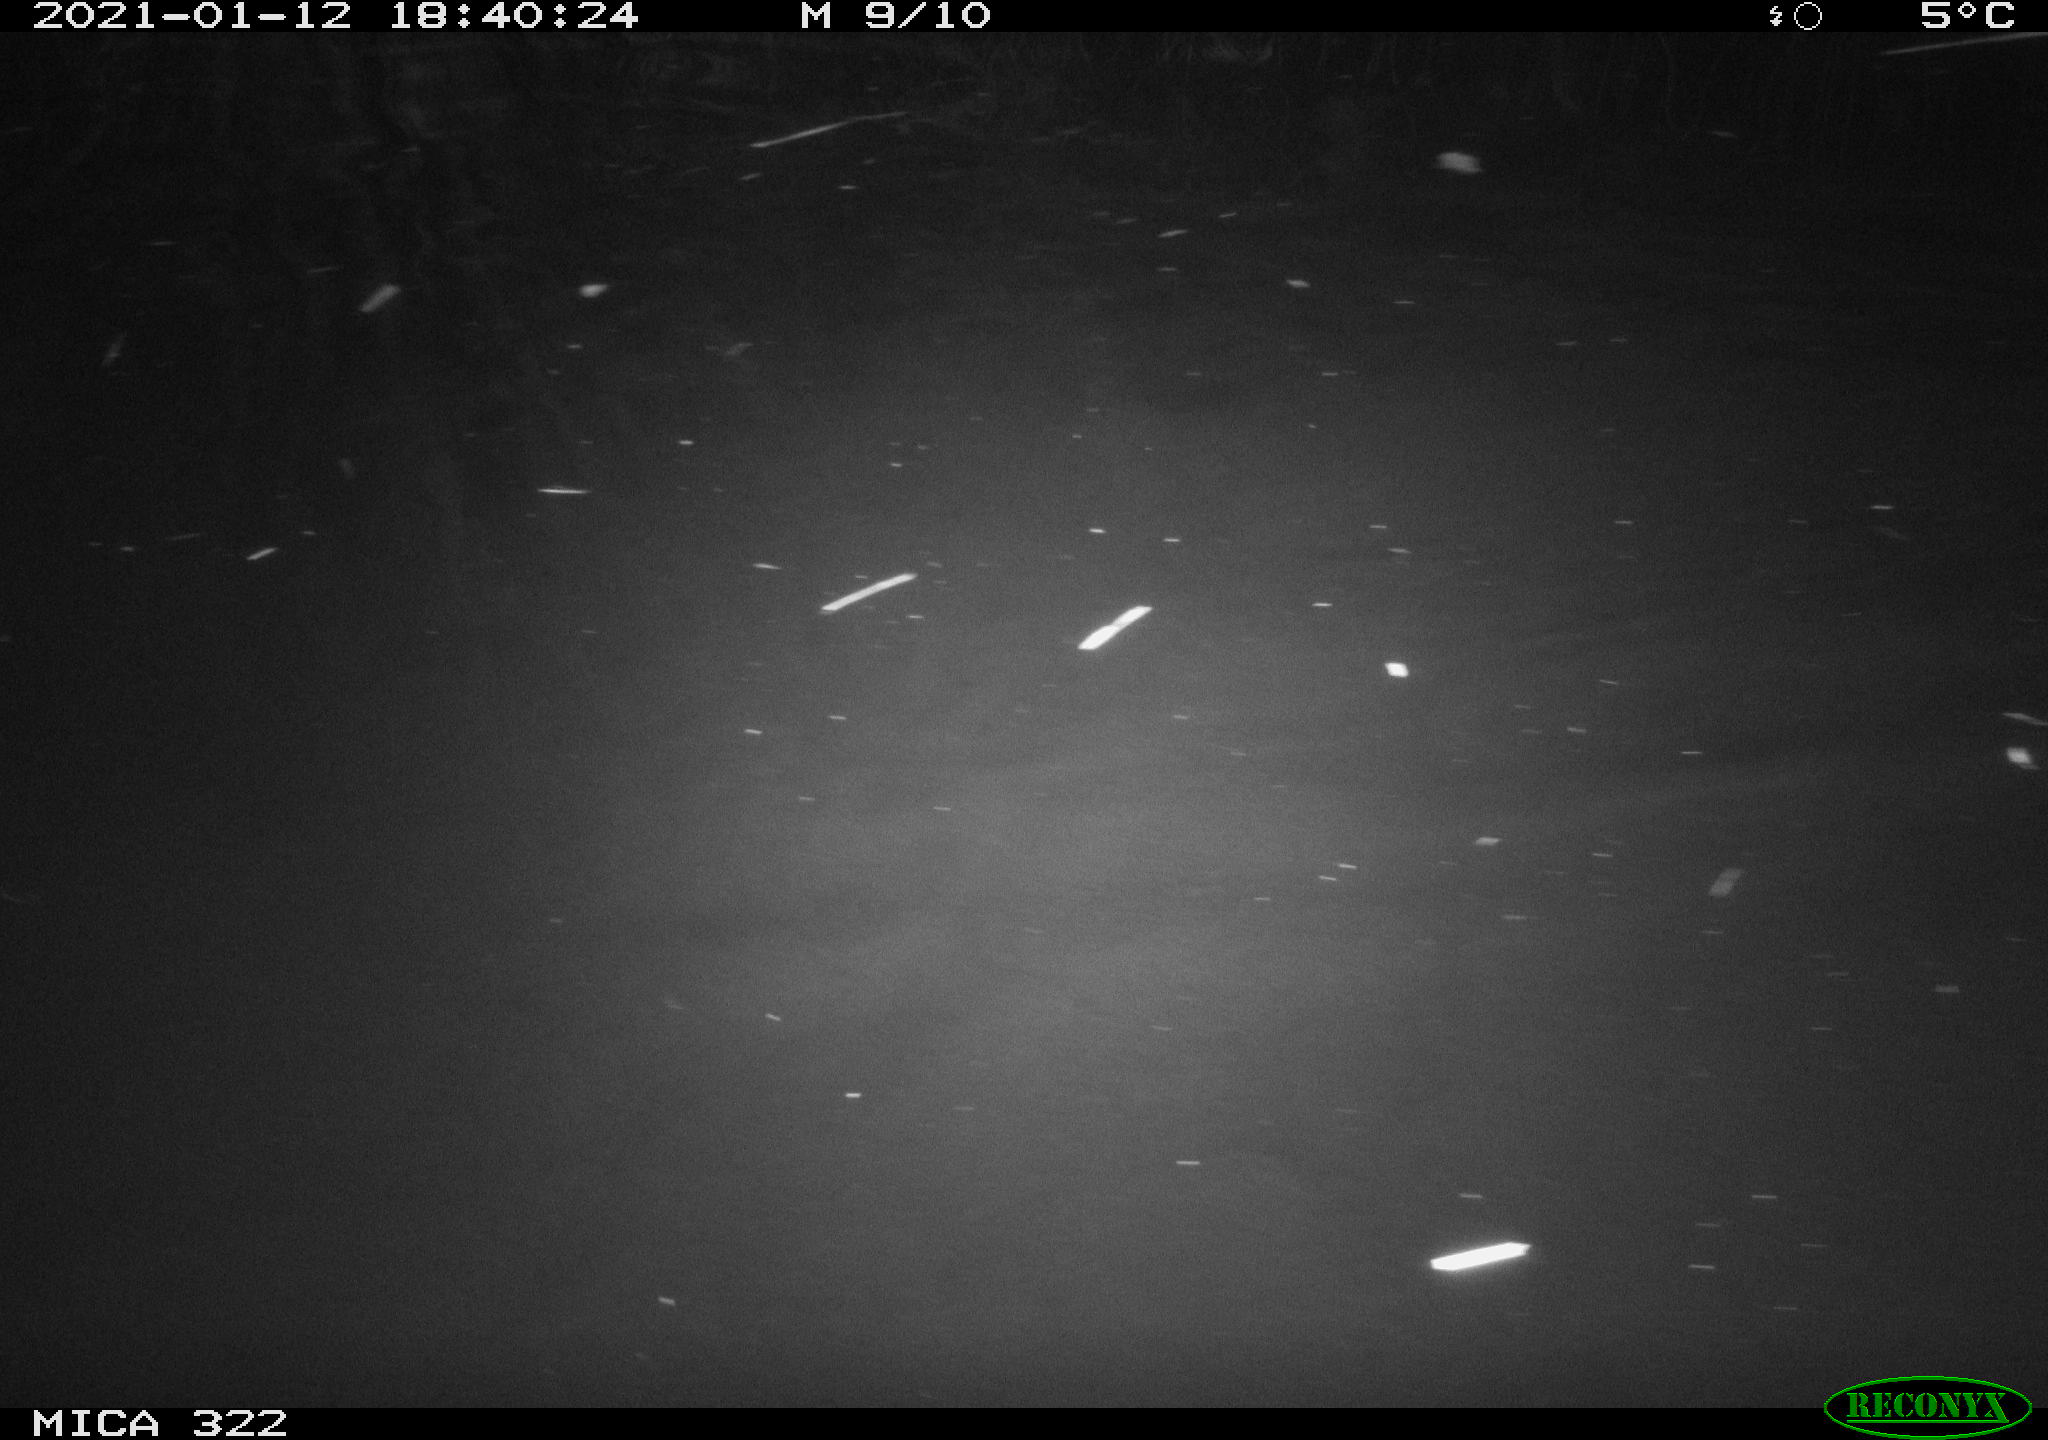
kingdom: Animalia
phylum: Chordata
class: Aves
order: Gruiformes
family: Rallidae
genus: Fulica
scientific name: Fulica atra
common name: Eurasian coot
